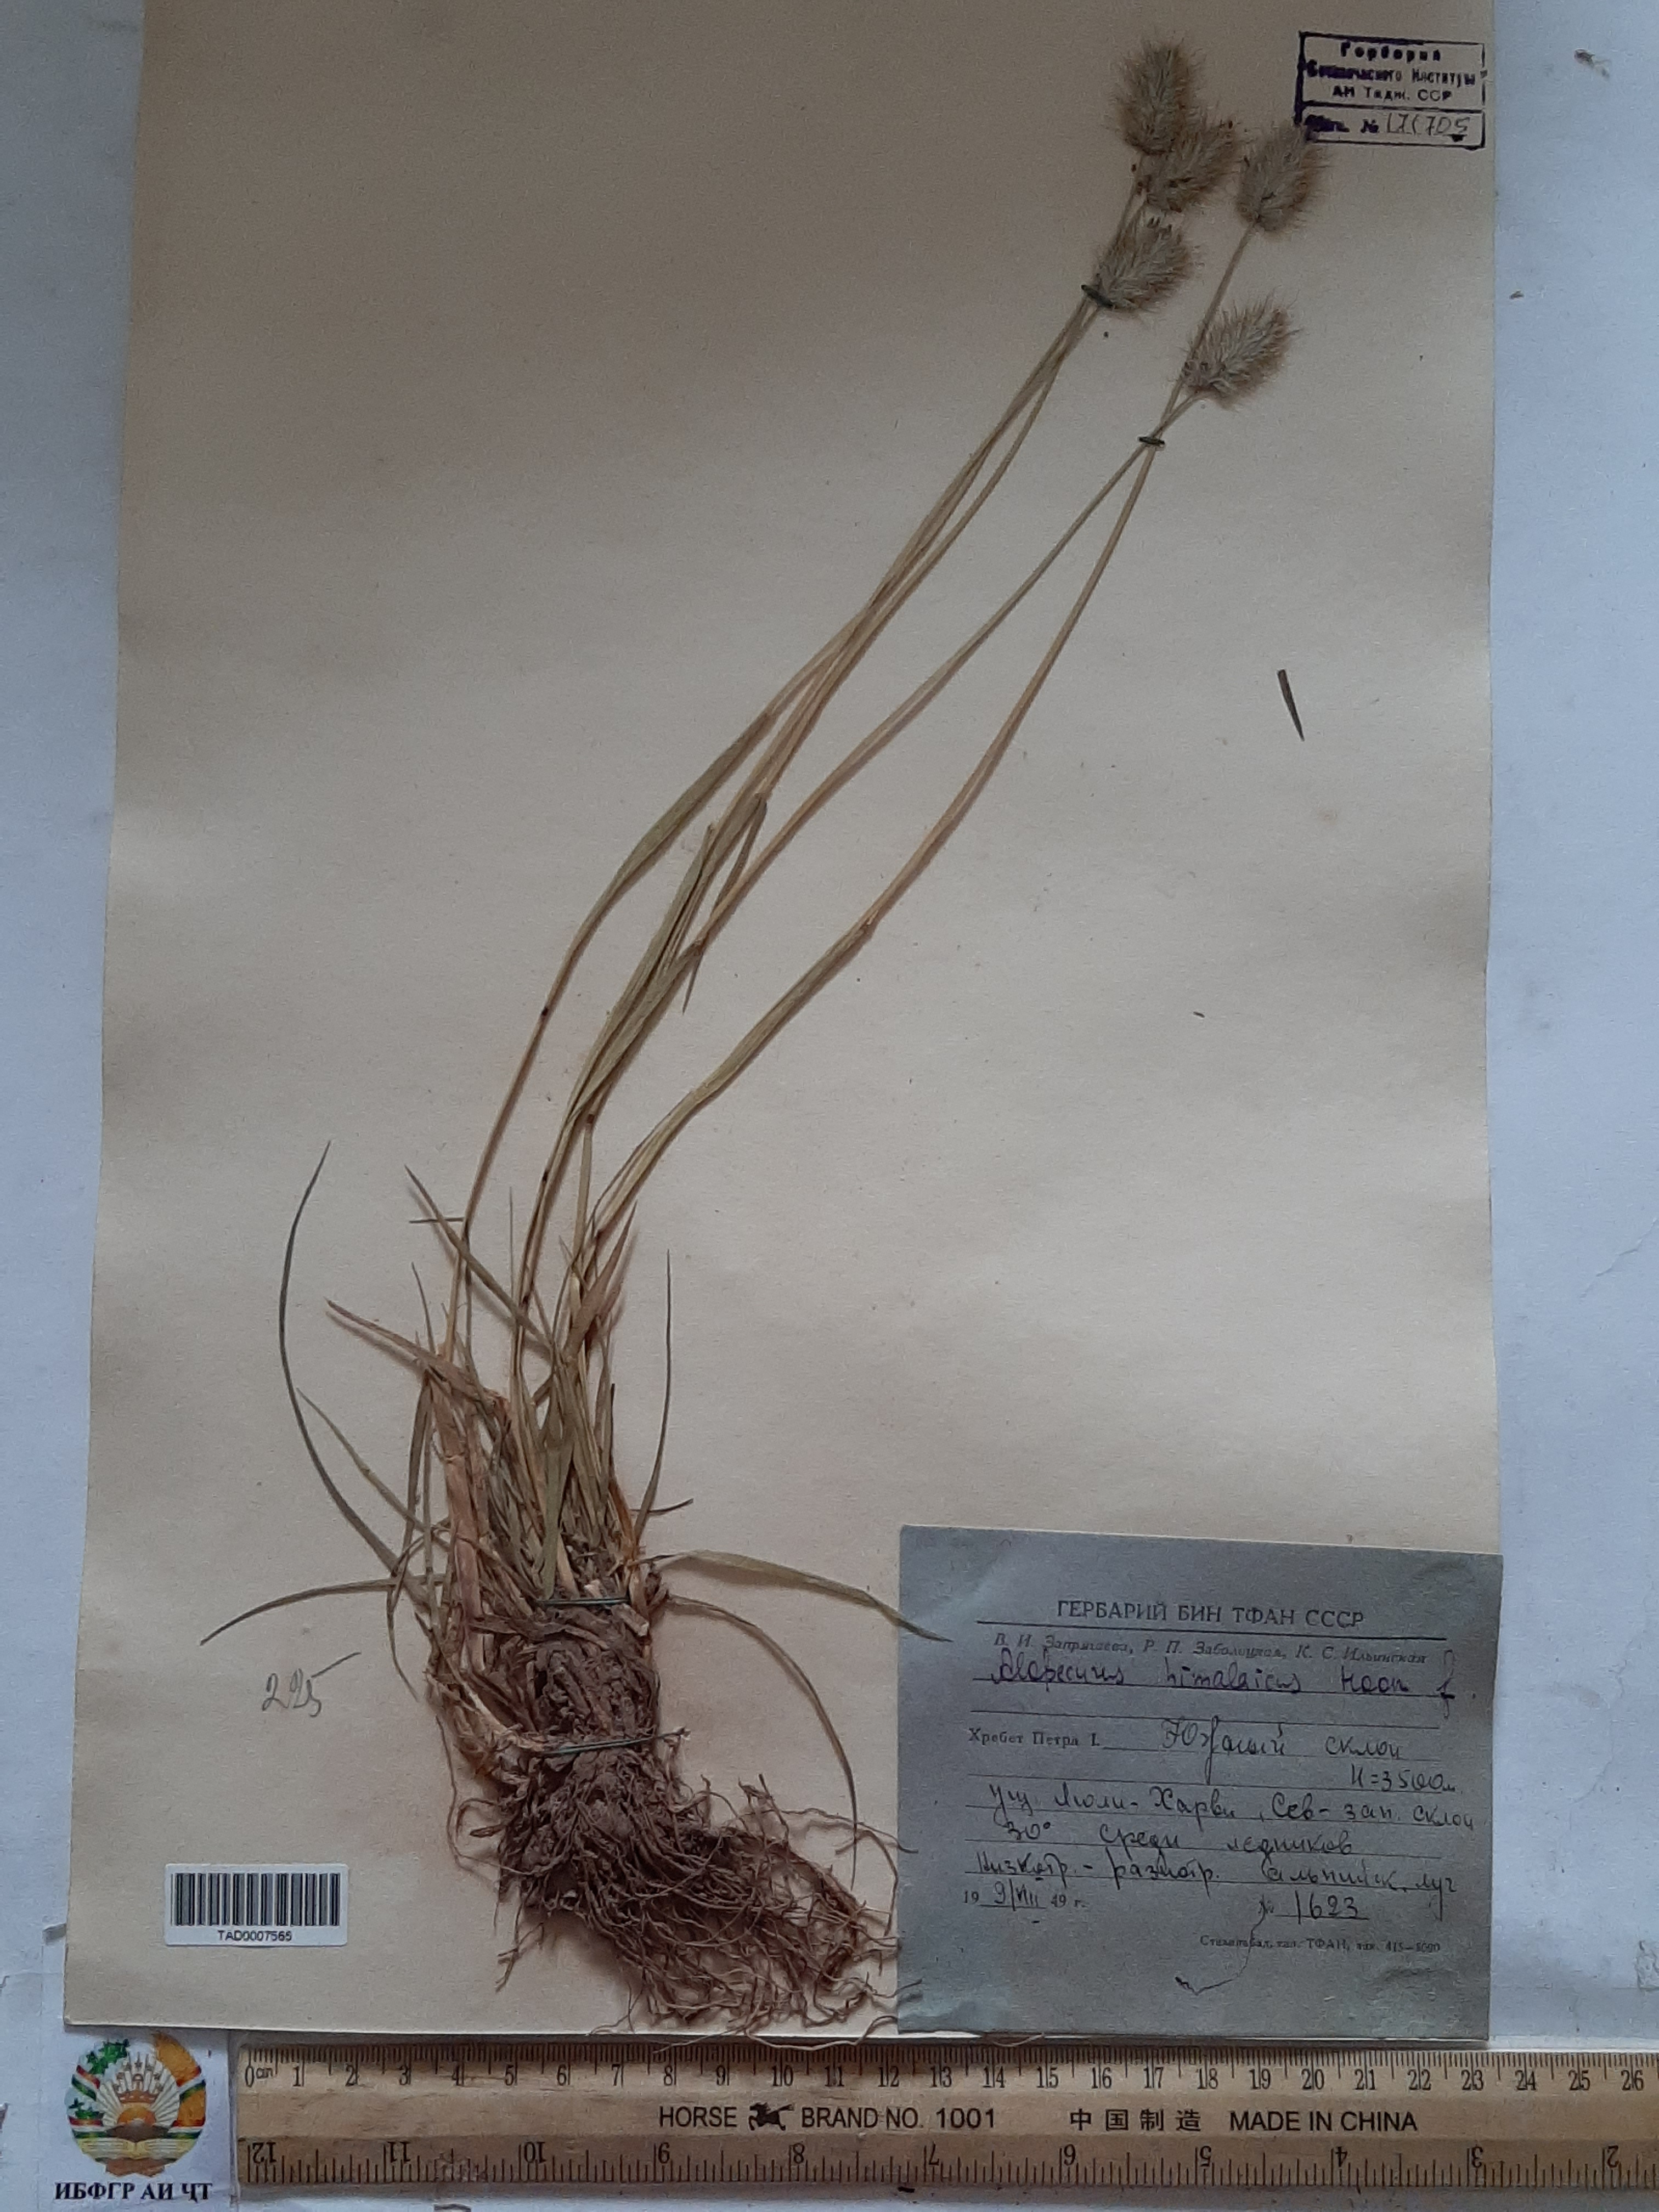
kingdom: Plantae
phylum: Tracheophyta
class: Liliopsida
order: Poales
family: Poaceae
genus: Alopecurus
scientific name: Alopecurus himalaicus
